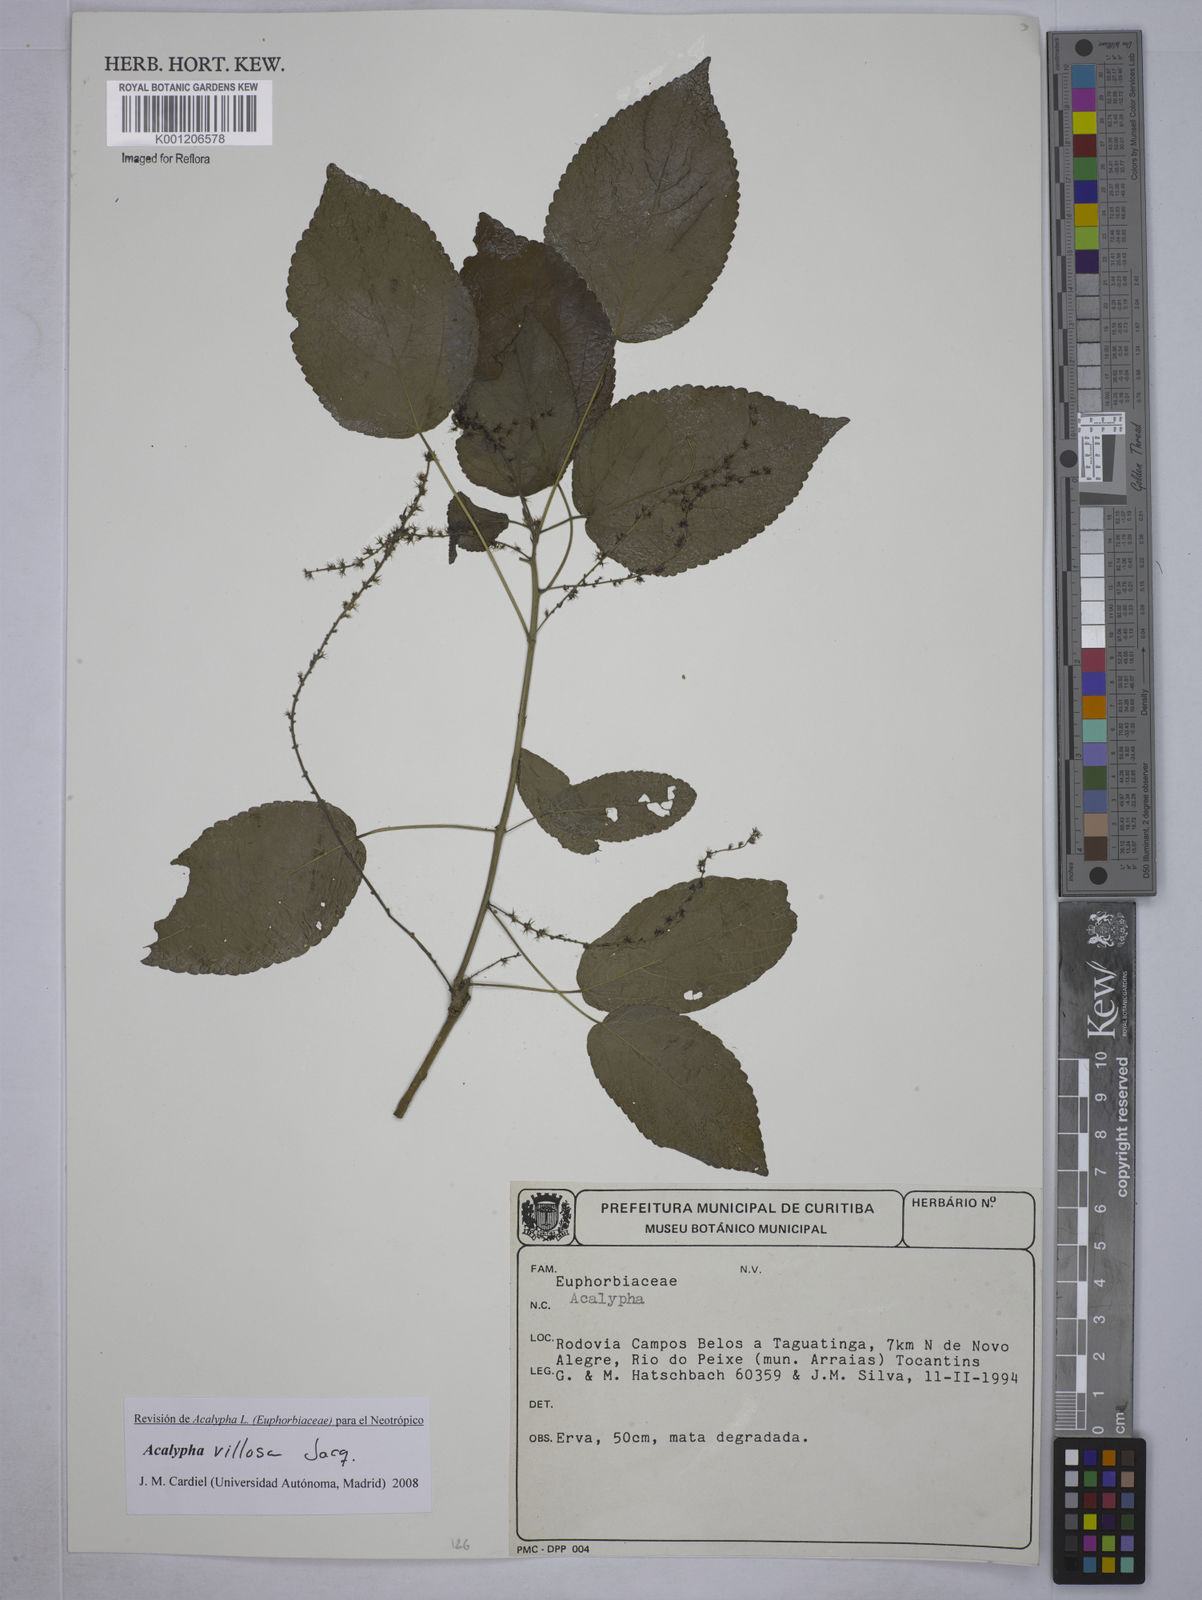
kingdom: Plantae
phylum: Tracheophyta
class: Magnoliopsida
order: Malpighiales
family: Euphorbiaceae
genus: Acalypha
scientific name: Acalypha villosa
